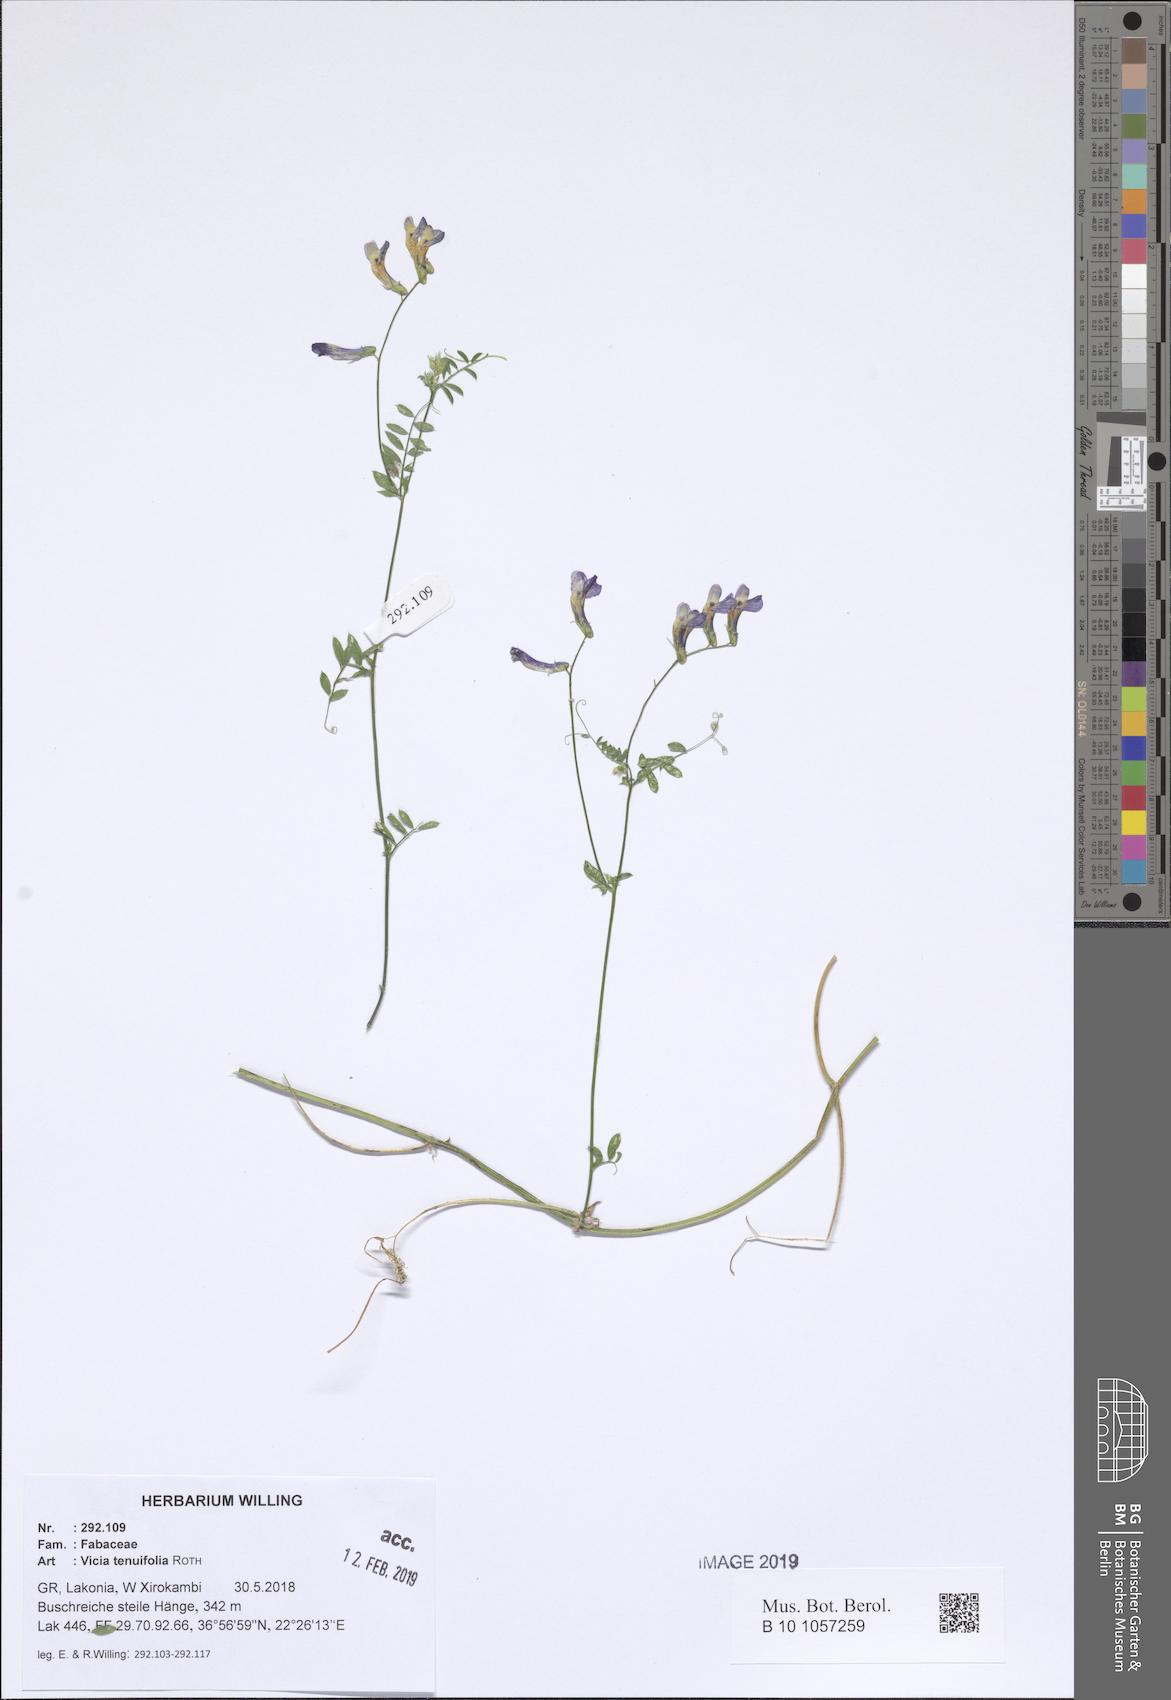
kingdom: Plantae
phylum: Tracheophyta
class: Magnoliopsida
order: Fabales
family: Fabaceae
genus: Vicia
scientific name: Vicia tenuifolia
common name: Fine-leaved vetch
